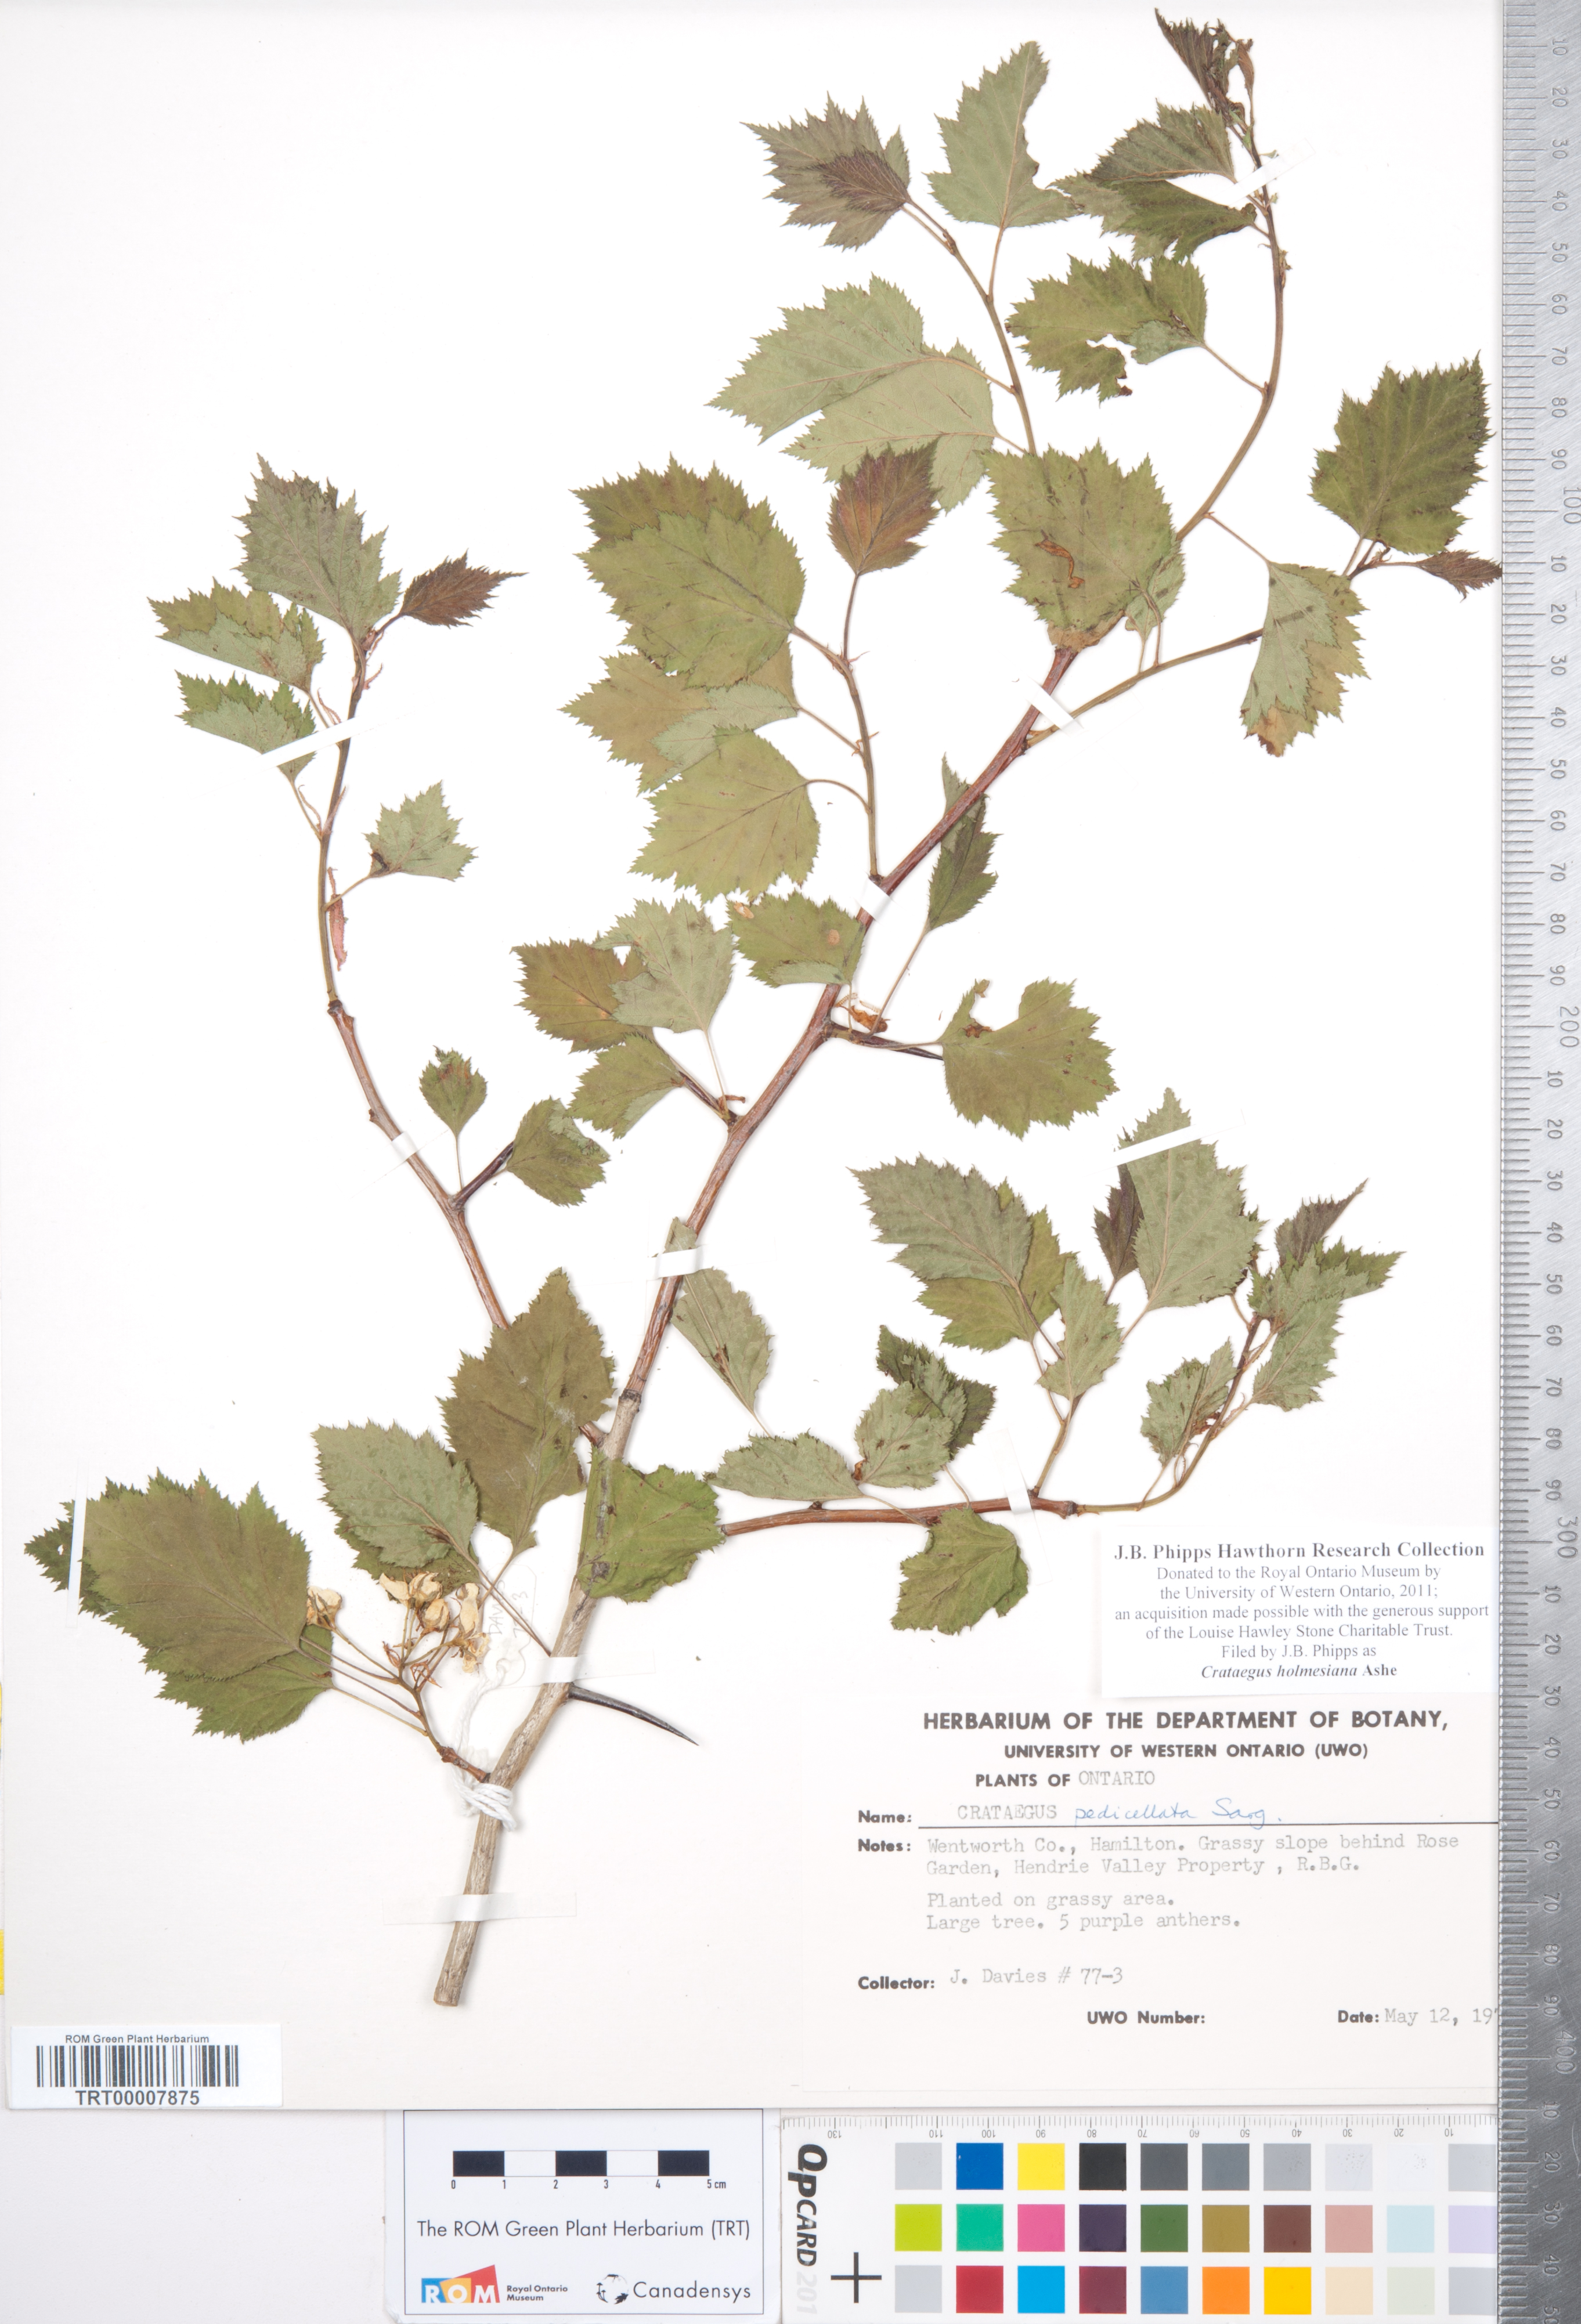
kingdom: Plantae
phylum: Tracheophyta
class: Magnoliopsida
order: Rosales
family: Rosaceae
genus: Crataegus
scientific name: Crataegus holmesiana
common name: Holmes' hawthorn
